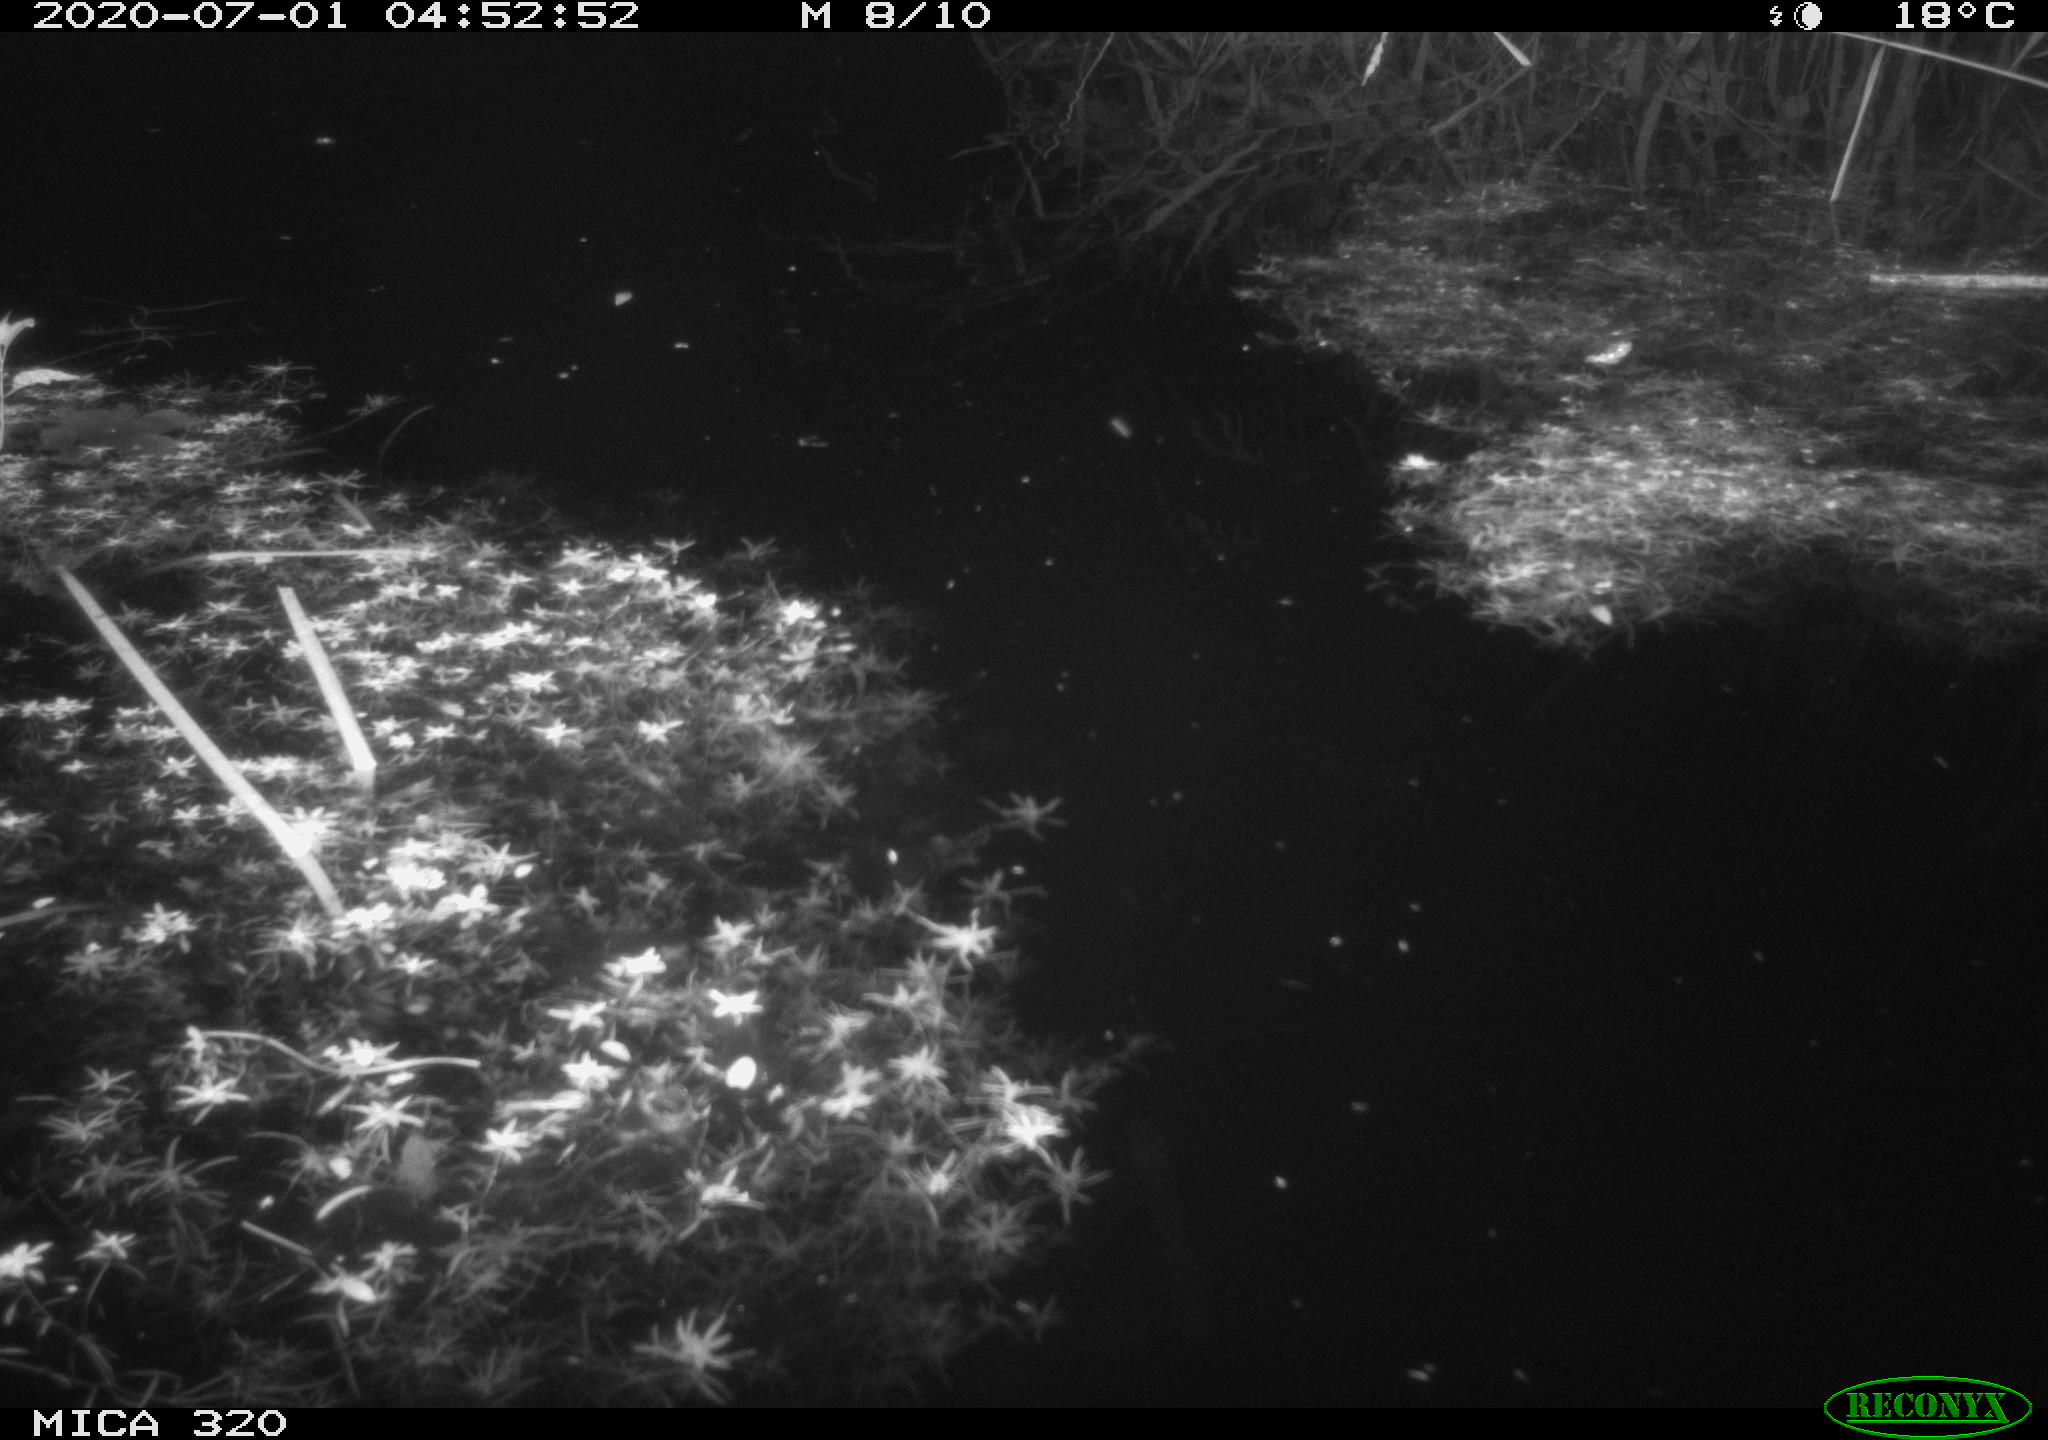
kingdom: Animalia
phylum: Chordata
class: Aves
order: Anseriformes
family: Anatidae
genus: Anas
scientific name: Anas platyrhynchos
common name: Mallard
